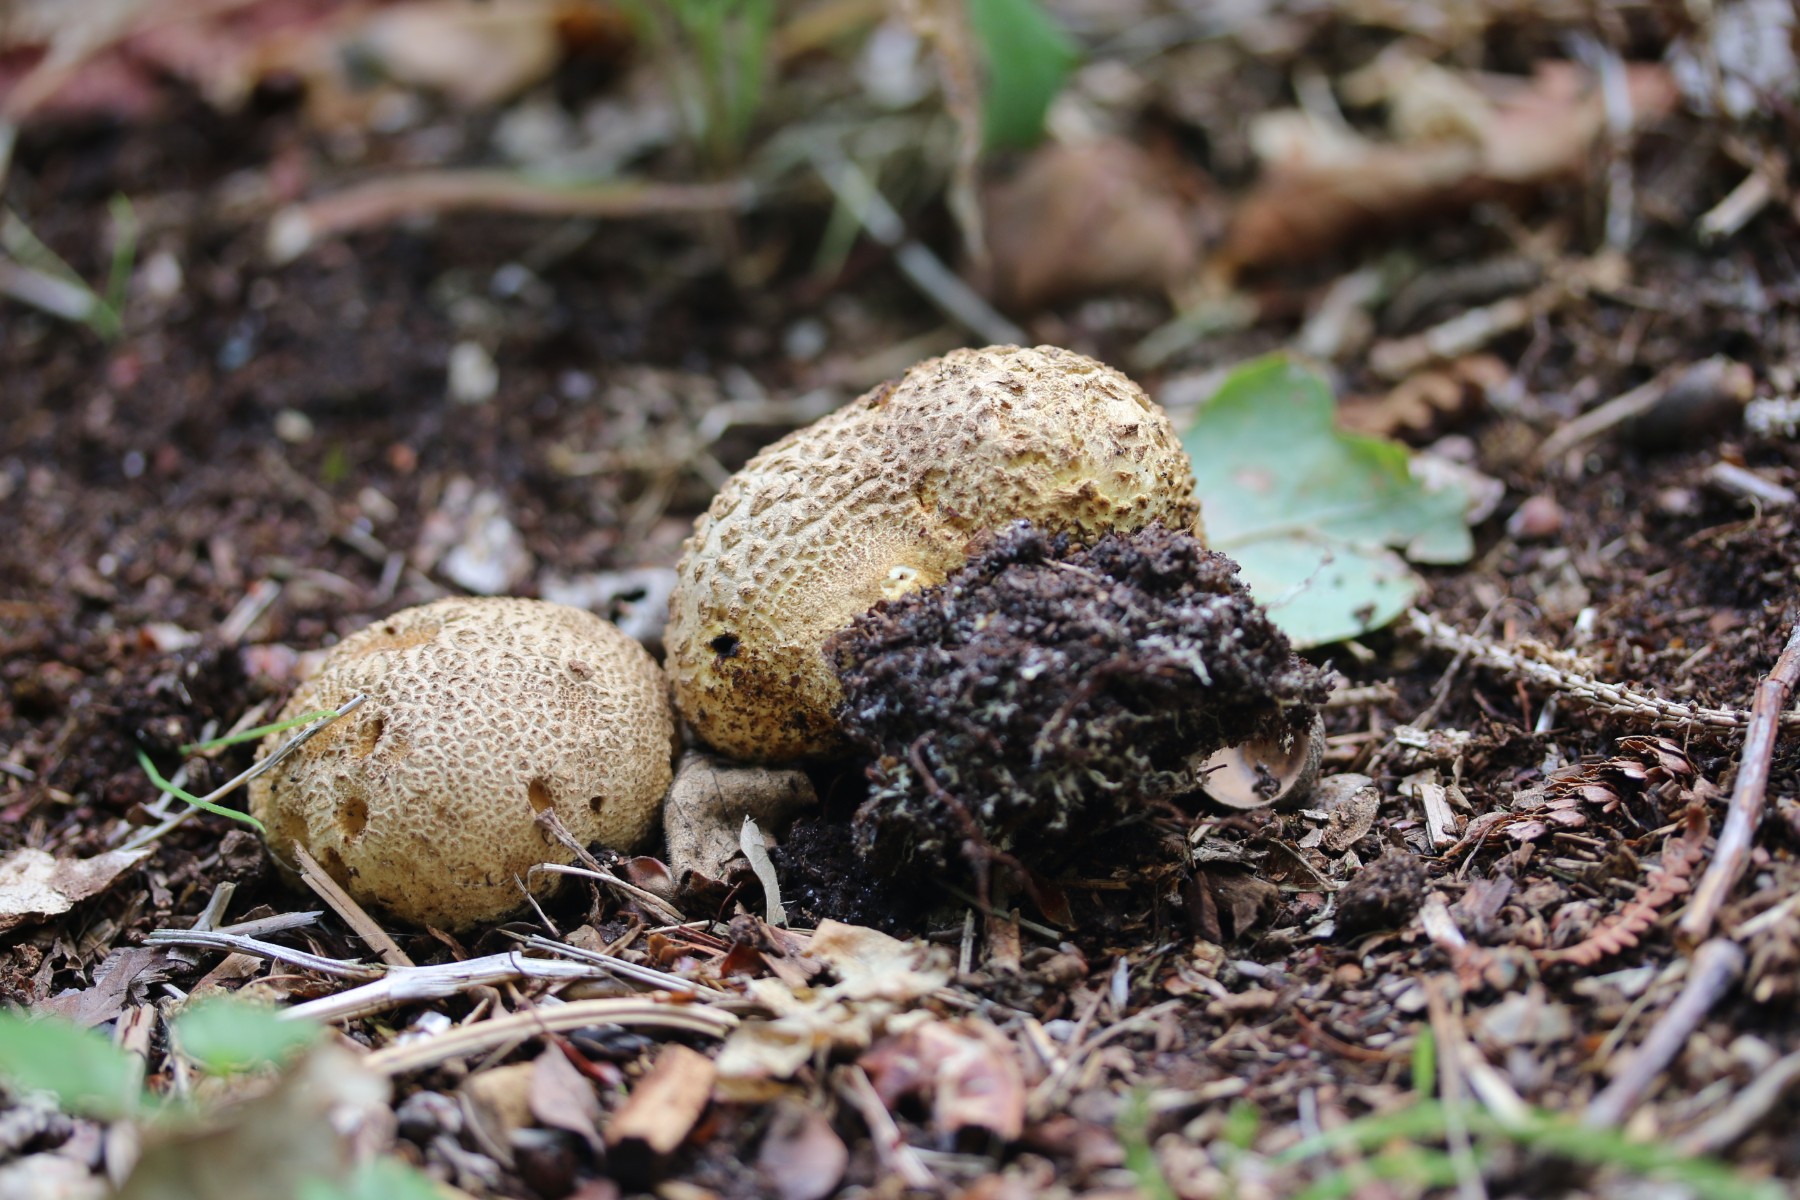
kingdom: Fungi
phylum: Basidiomycota
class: Agaricomycetes
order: Boletales
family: Sclerodermataceae
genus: Scleroderma
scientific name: Scleroderma citrinum
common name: almindelig bruskbold
